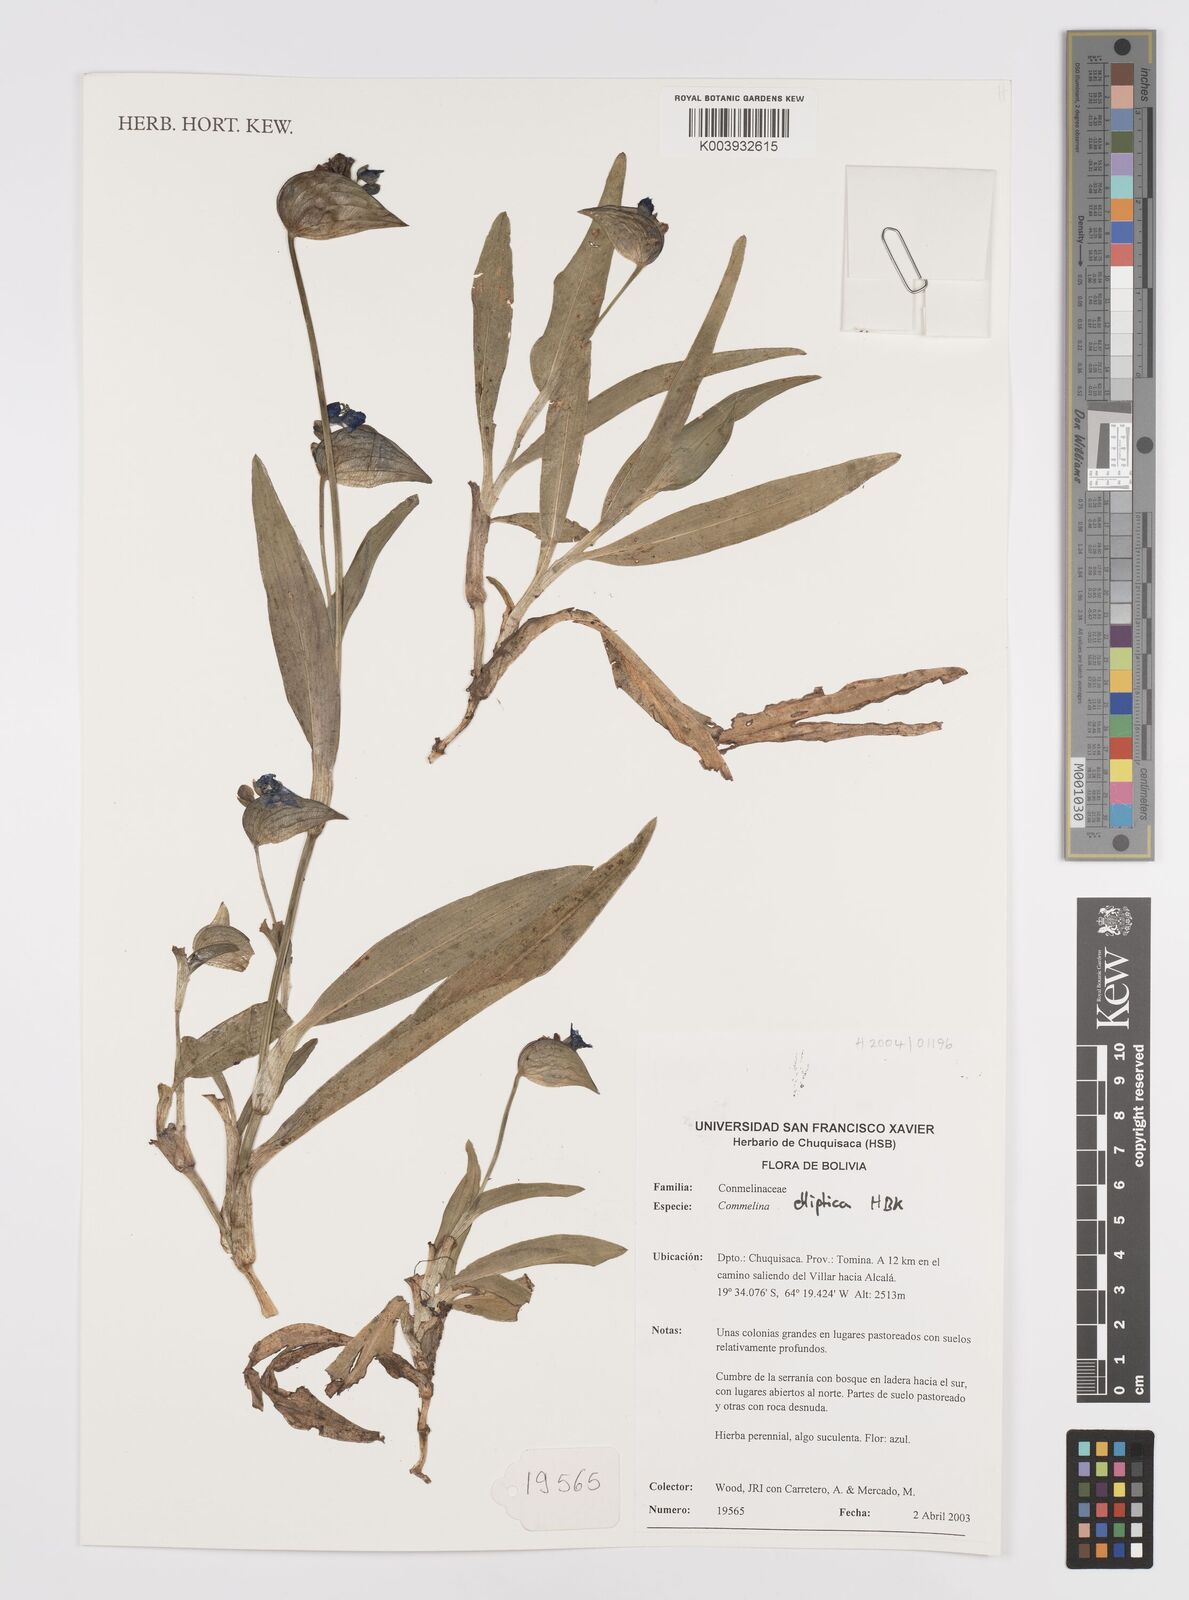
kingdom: Plantae
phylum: Tracheophyta
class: Liliopsida
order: Commelinales
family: Commelinaceae
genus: Commelina
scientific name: Commelina elliptica
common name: Peruvian spiderwort
